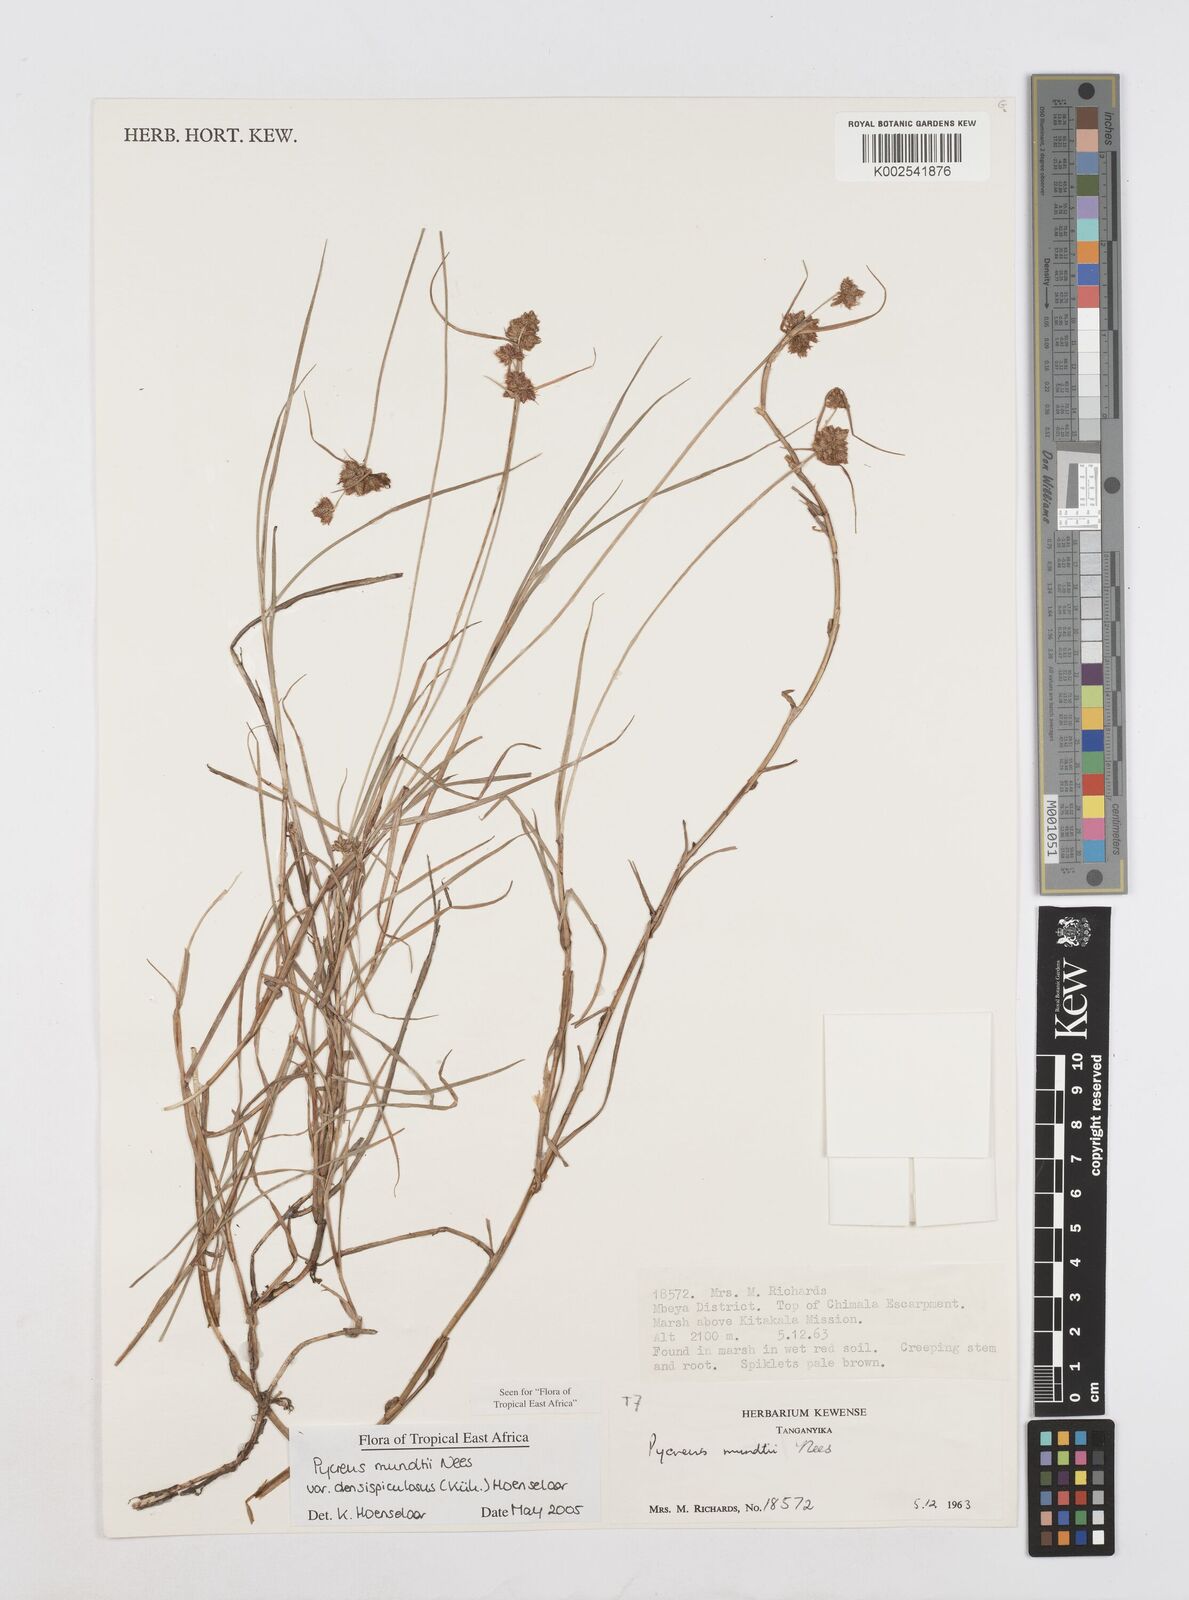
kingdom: Plantae
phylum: Tracheophyta
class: Liliopsida
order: Poales
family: Cyperaceae
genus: Cyperus
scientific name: Cyperus mundii
